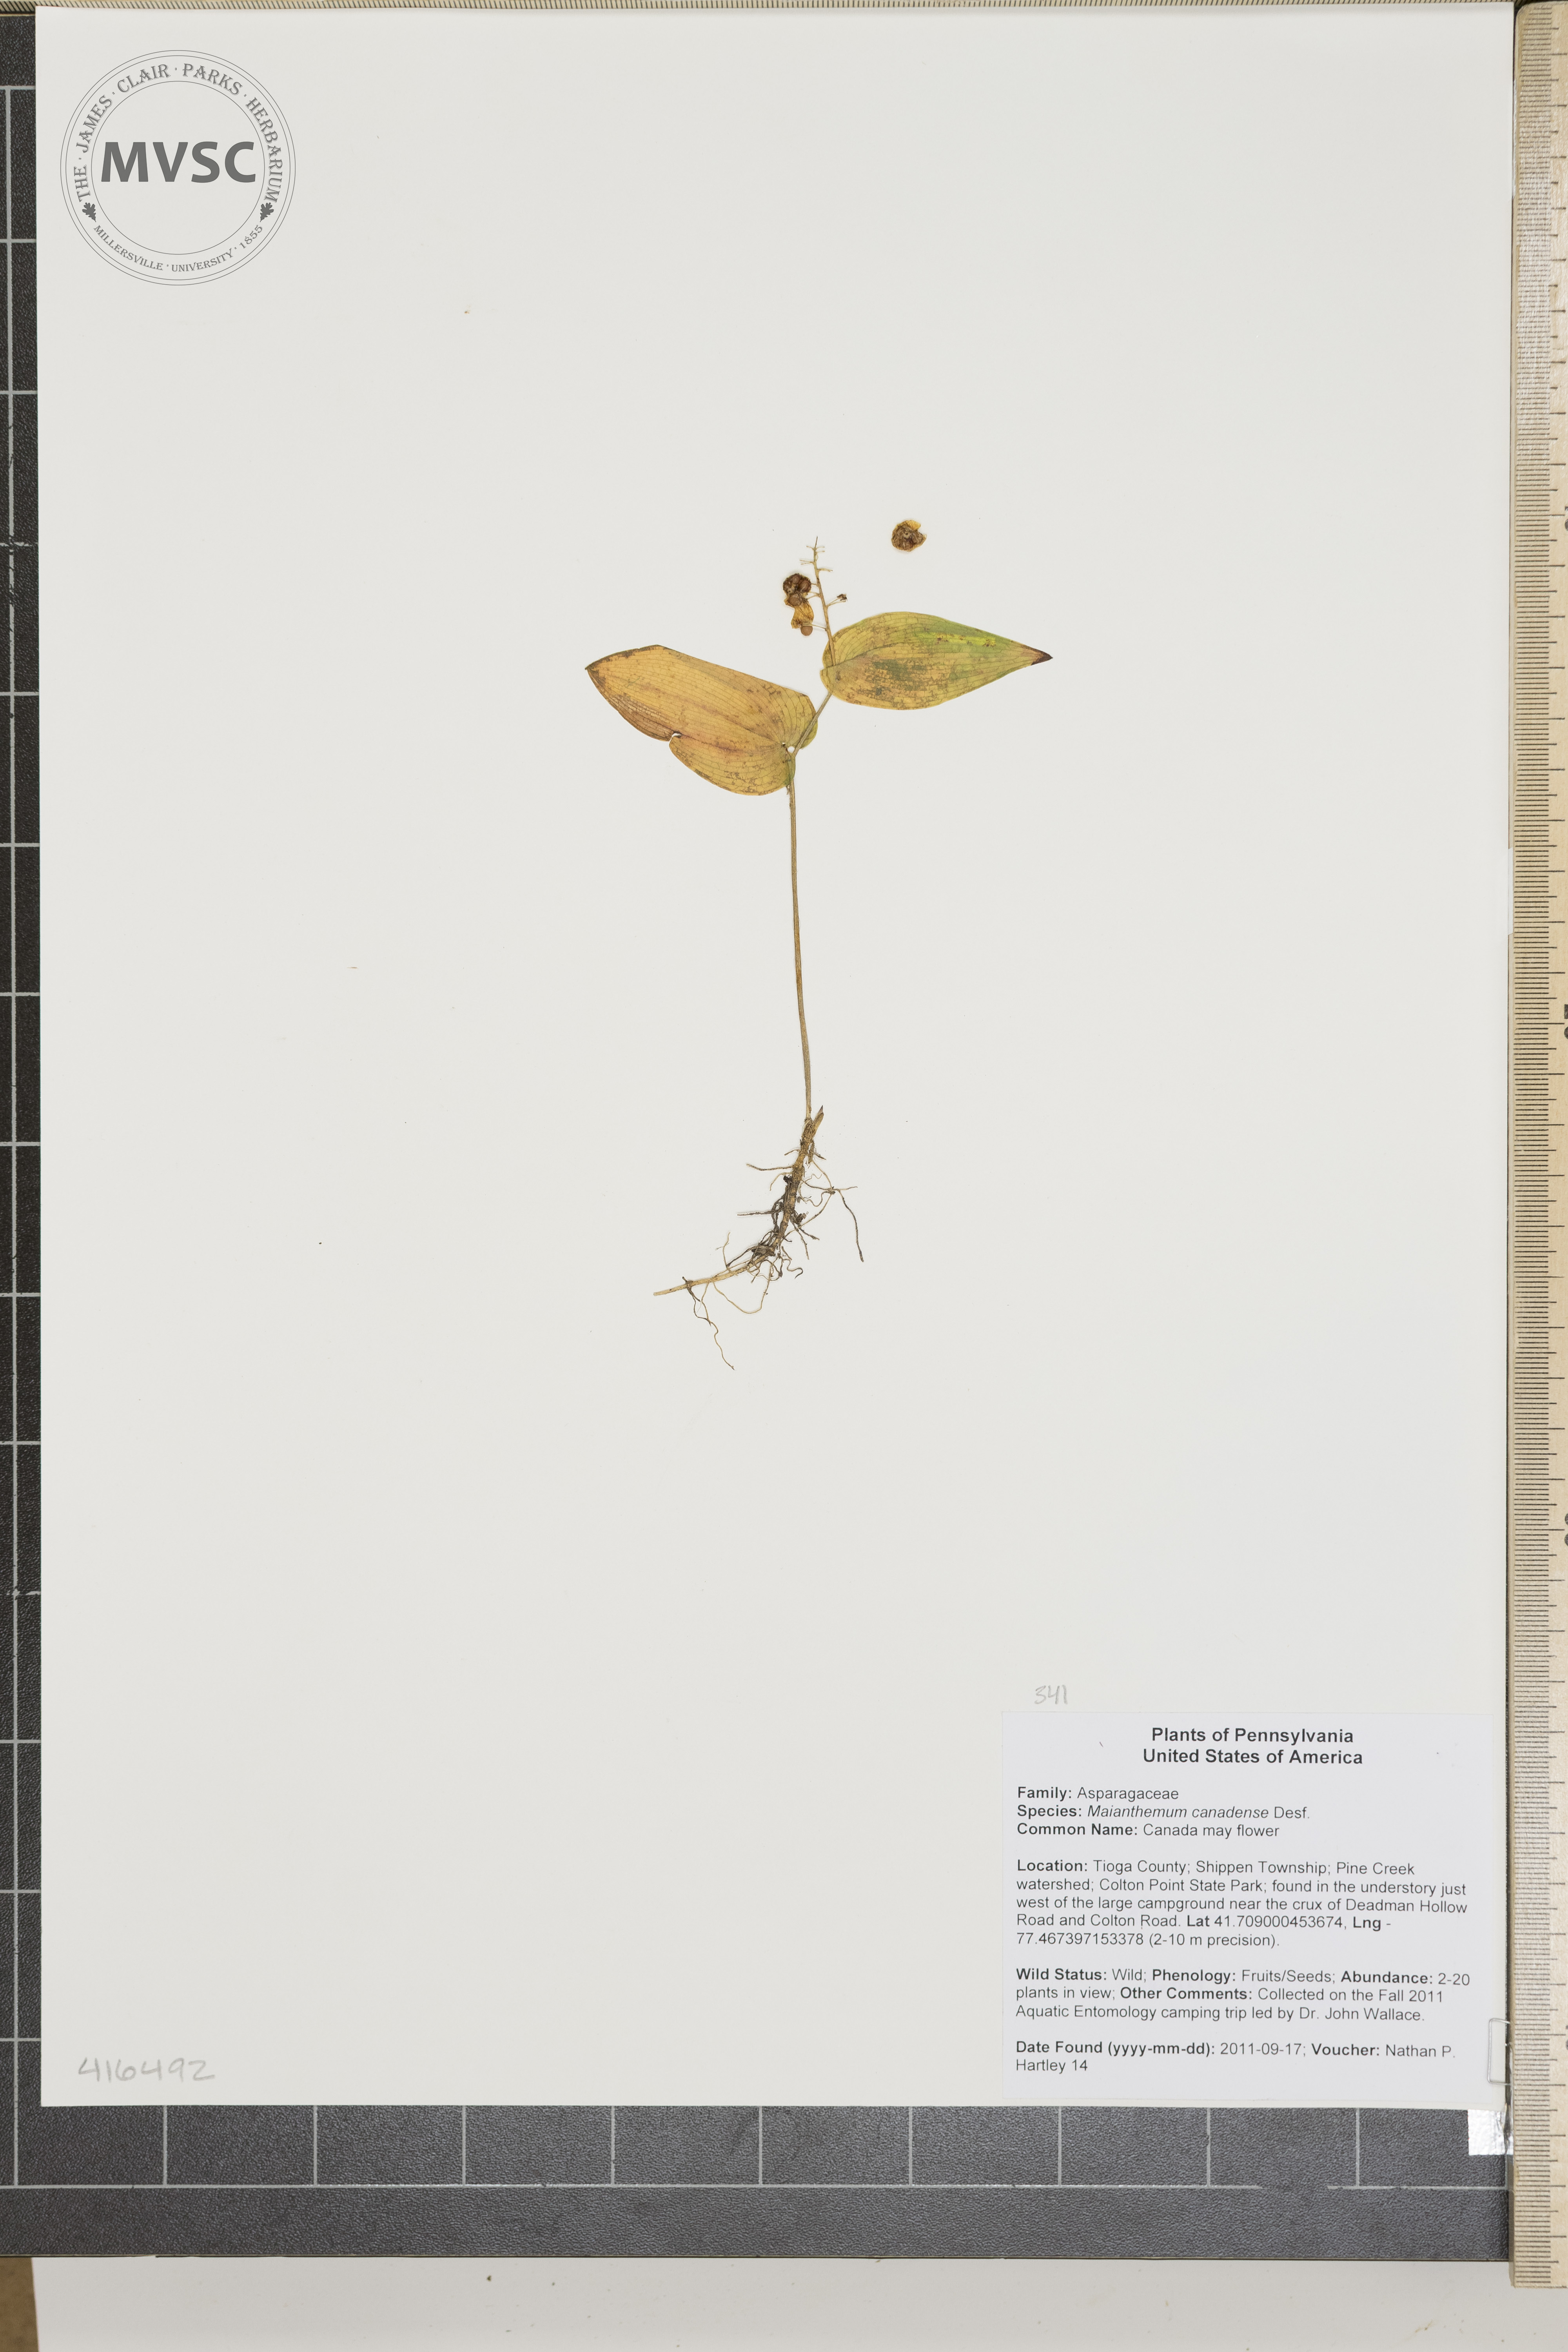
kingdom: Plantae
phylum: Tracheophyta
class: Liliopsida
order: Asparagales
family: Asparagaceae
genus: Maianthemum
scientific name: Maianthemum canadense
